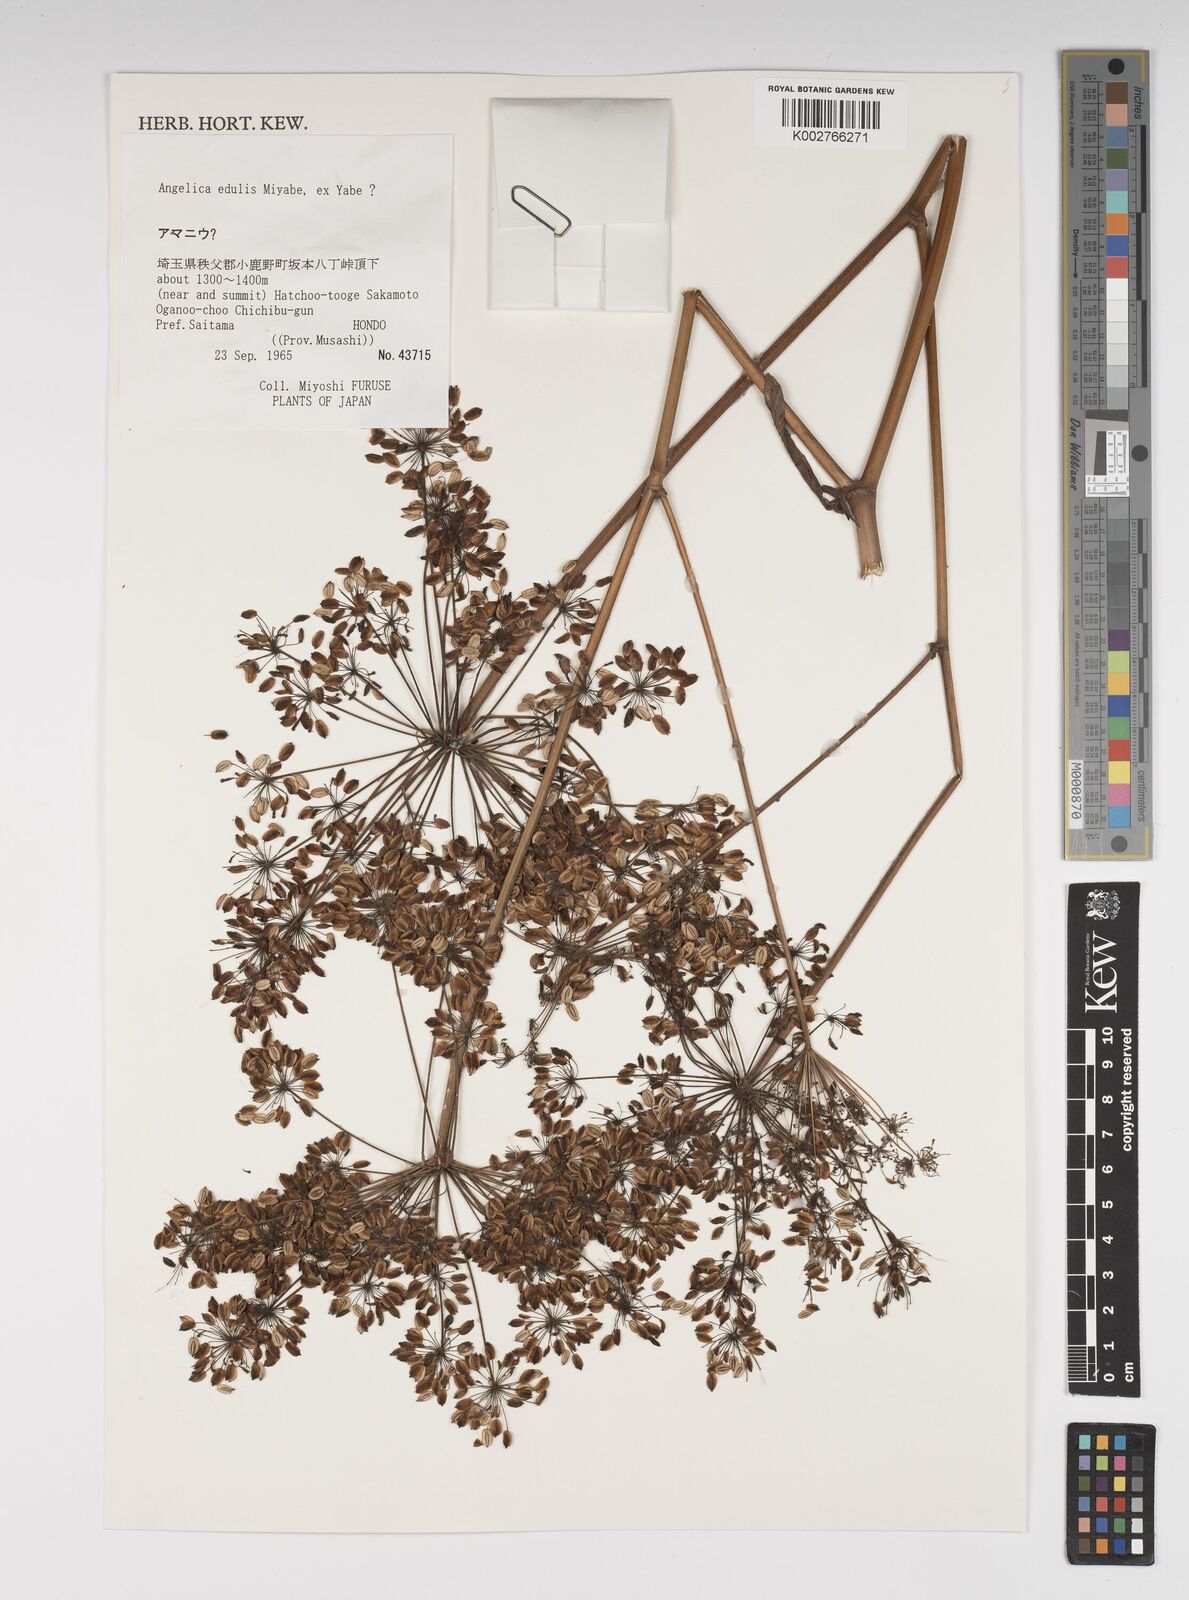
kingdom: Plantae
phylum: Tracheophyta
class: Magnoliopsida
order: Apiales
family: Apiaceae
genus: Angelica
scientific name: Angelica edulis
